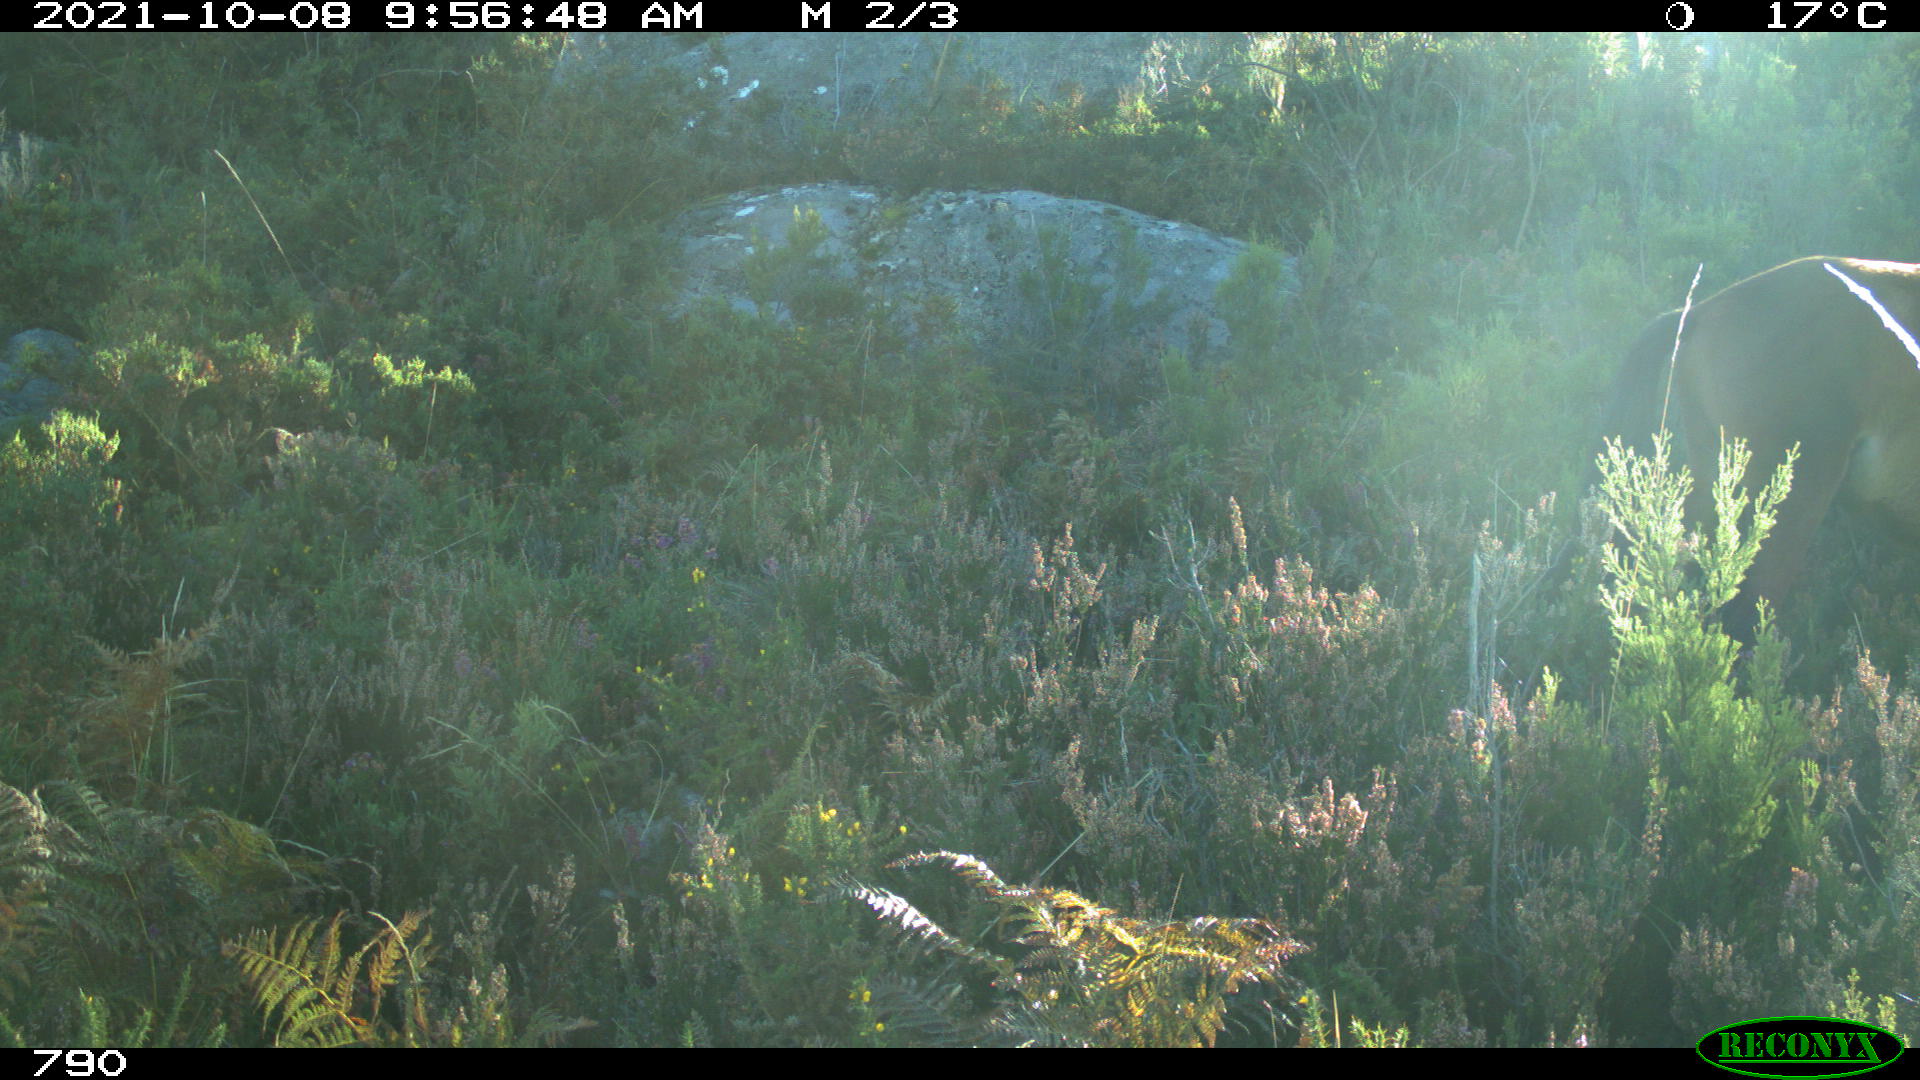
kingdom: Animalia
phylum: Chordata
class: Mammalia
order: Perissodactyla
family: Equidae
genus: Equus
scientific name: Equus caballus
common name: Horse
